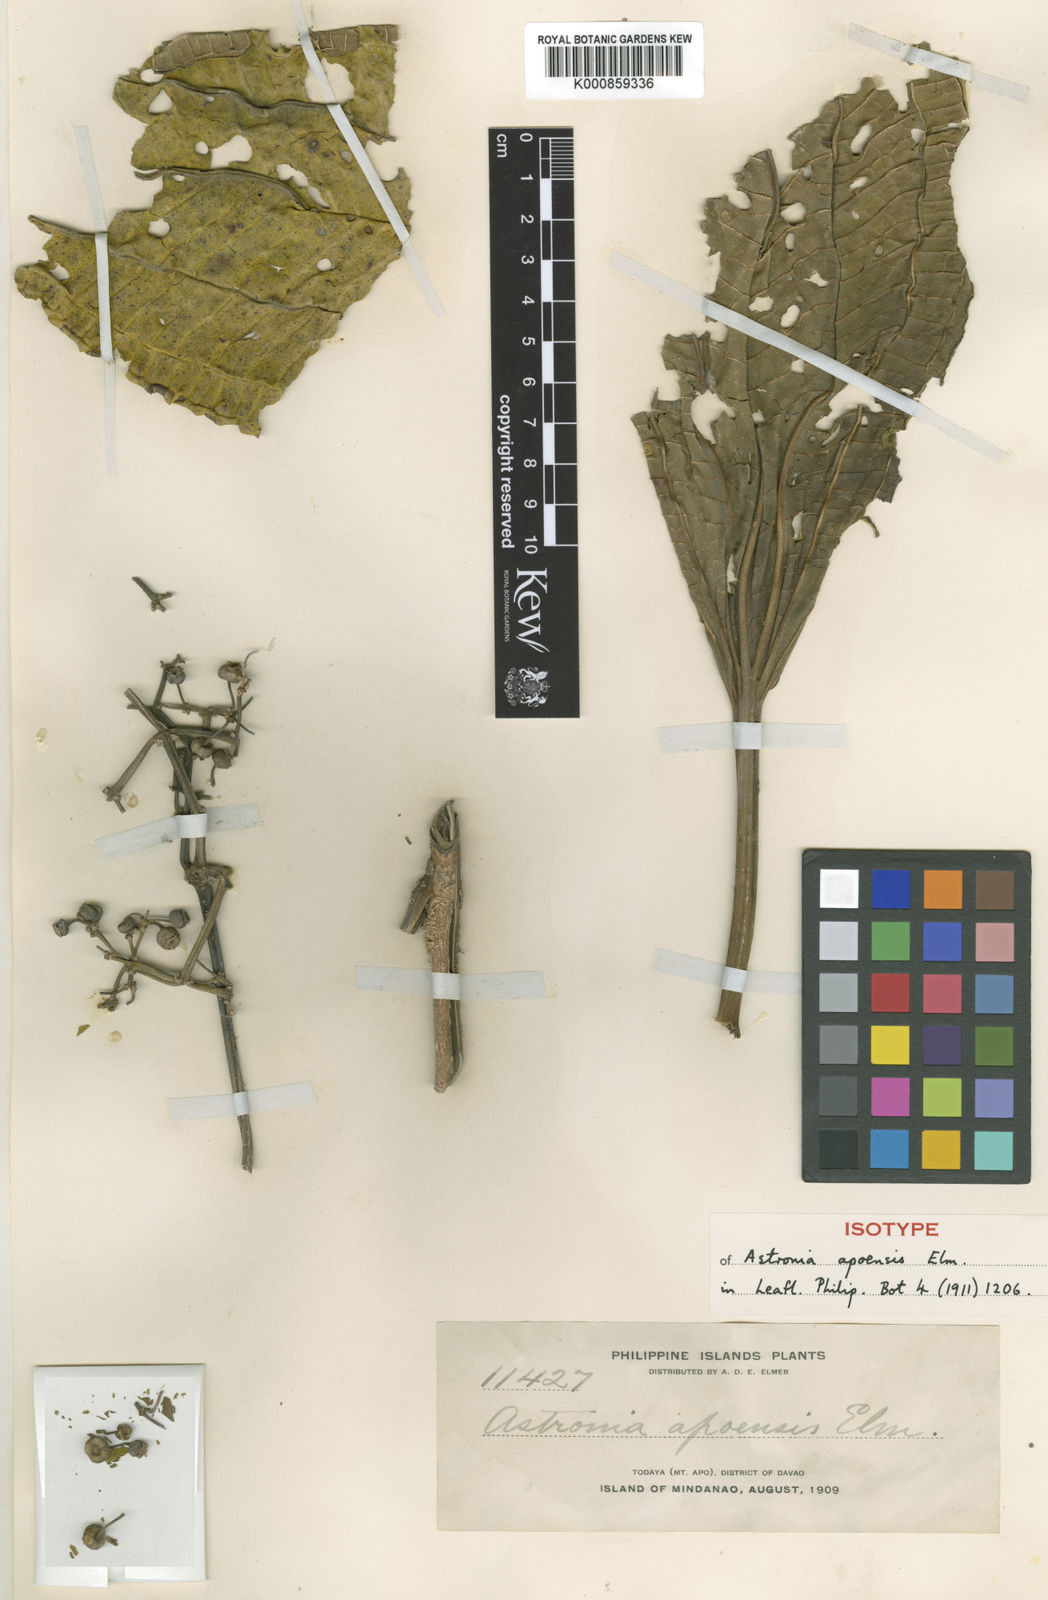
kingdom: Plantae
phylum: Tracheophyta
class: Magnoliopsida
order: Myrtales
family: Melastomataceae
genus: Astronia
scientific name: Astronia apoensis
